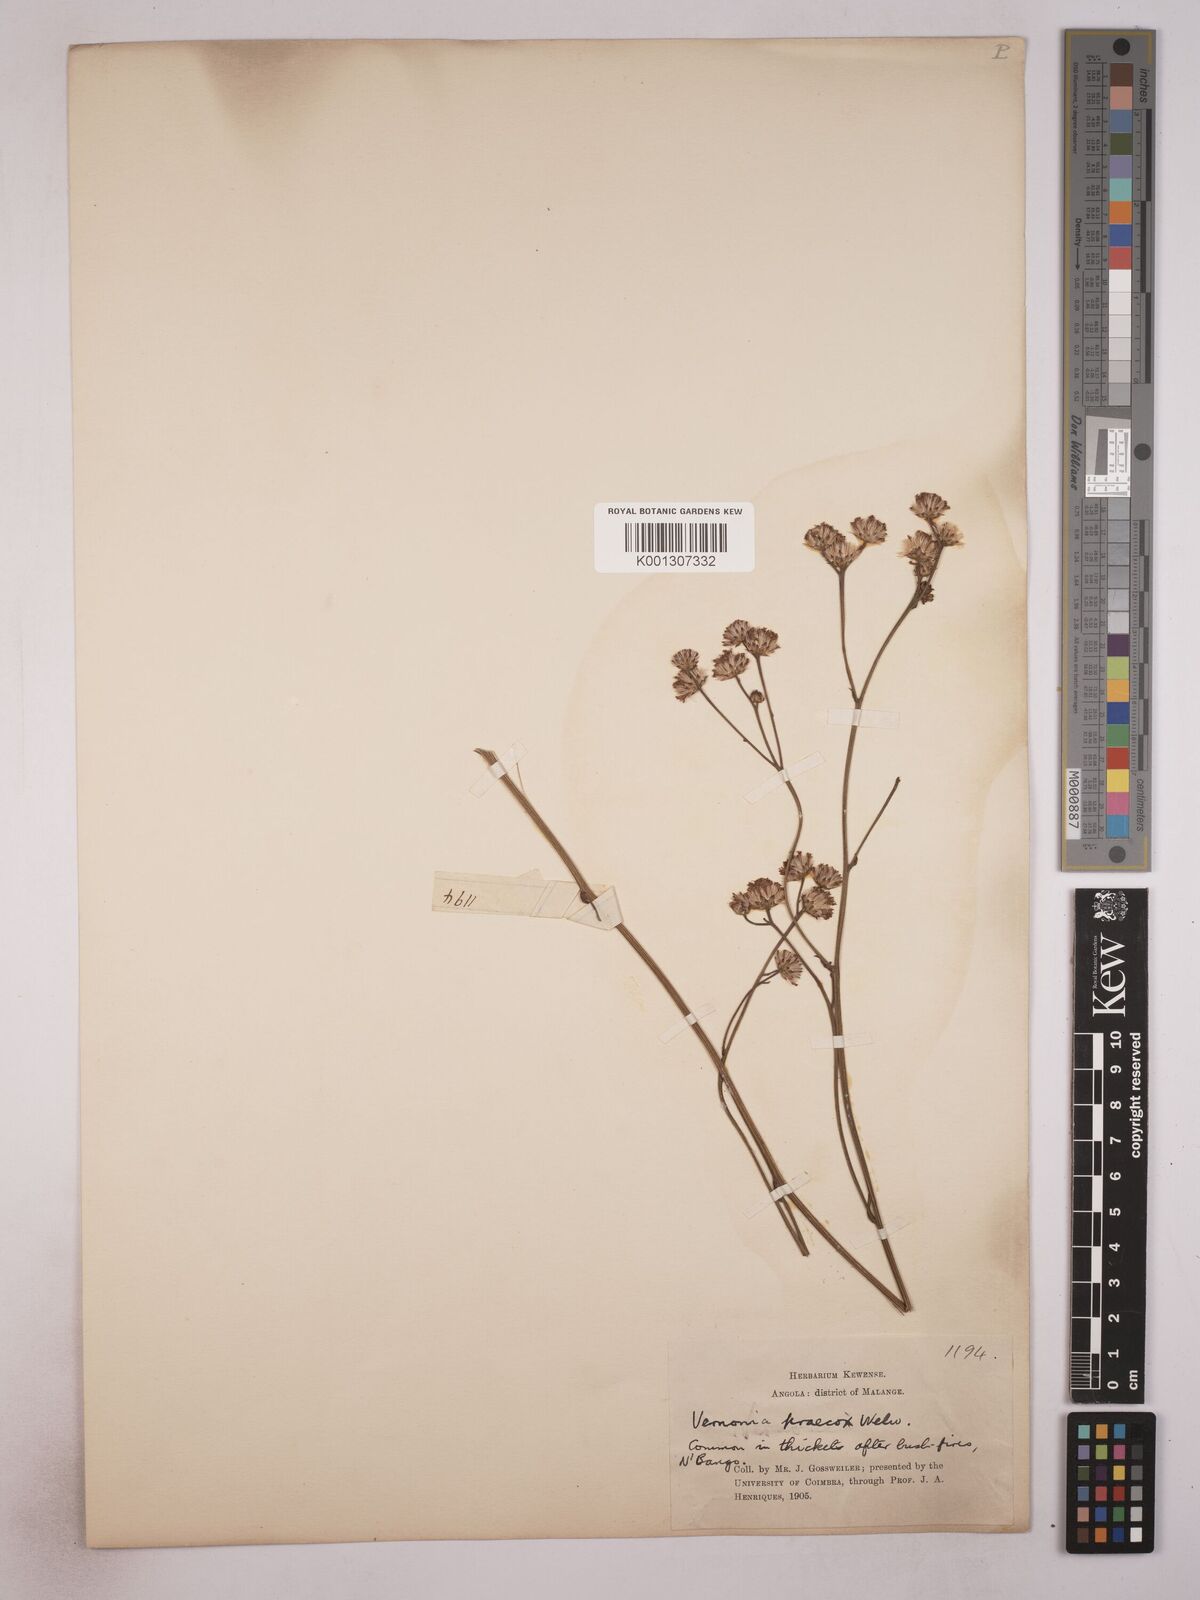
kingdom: Plantae
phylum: Tracheophyta
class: Magnoliopsida
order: Asterales
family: Asteraceae
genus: Vernonella
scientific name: Vernonella praecox
